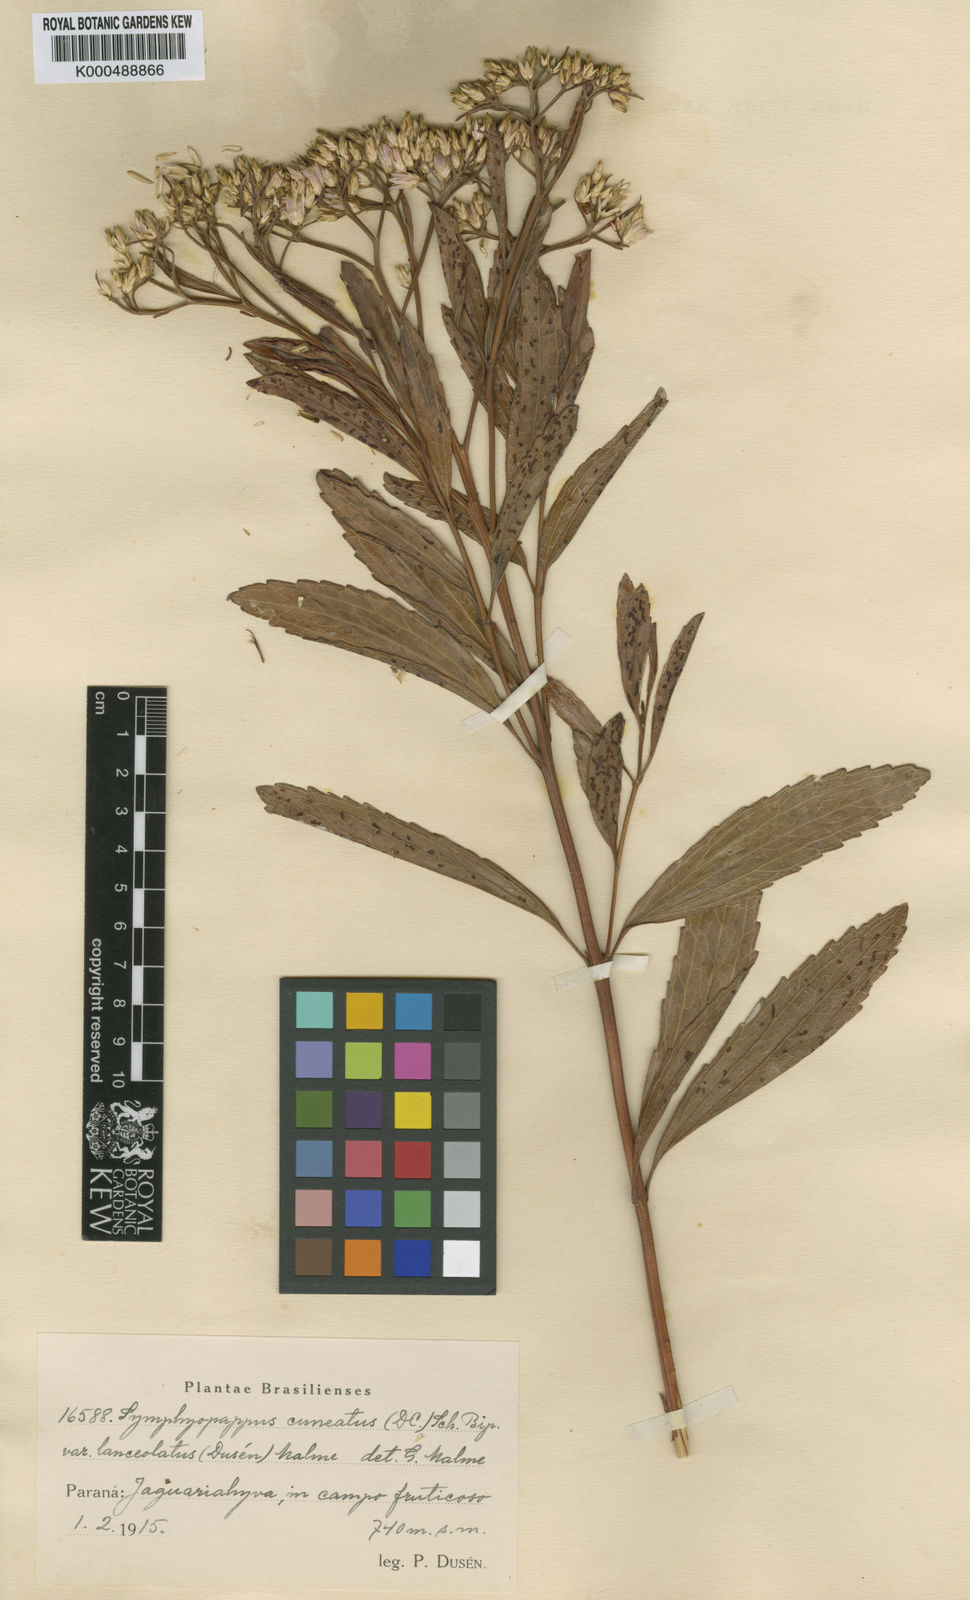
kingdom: Plantae
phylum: Tracheophyta
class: Magnoliopsida
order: Asterales
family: Asteraceae
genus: Symphyopappus
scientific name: Symphyopappus cuneatus
